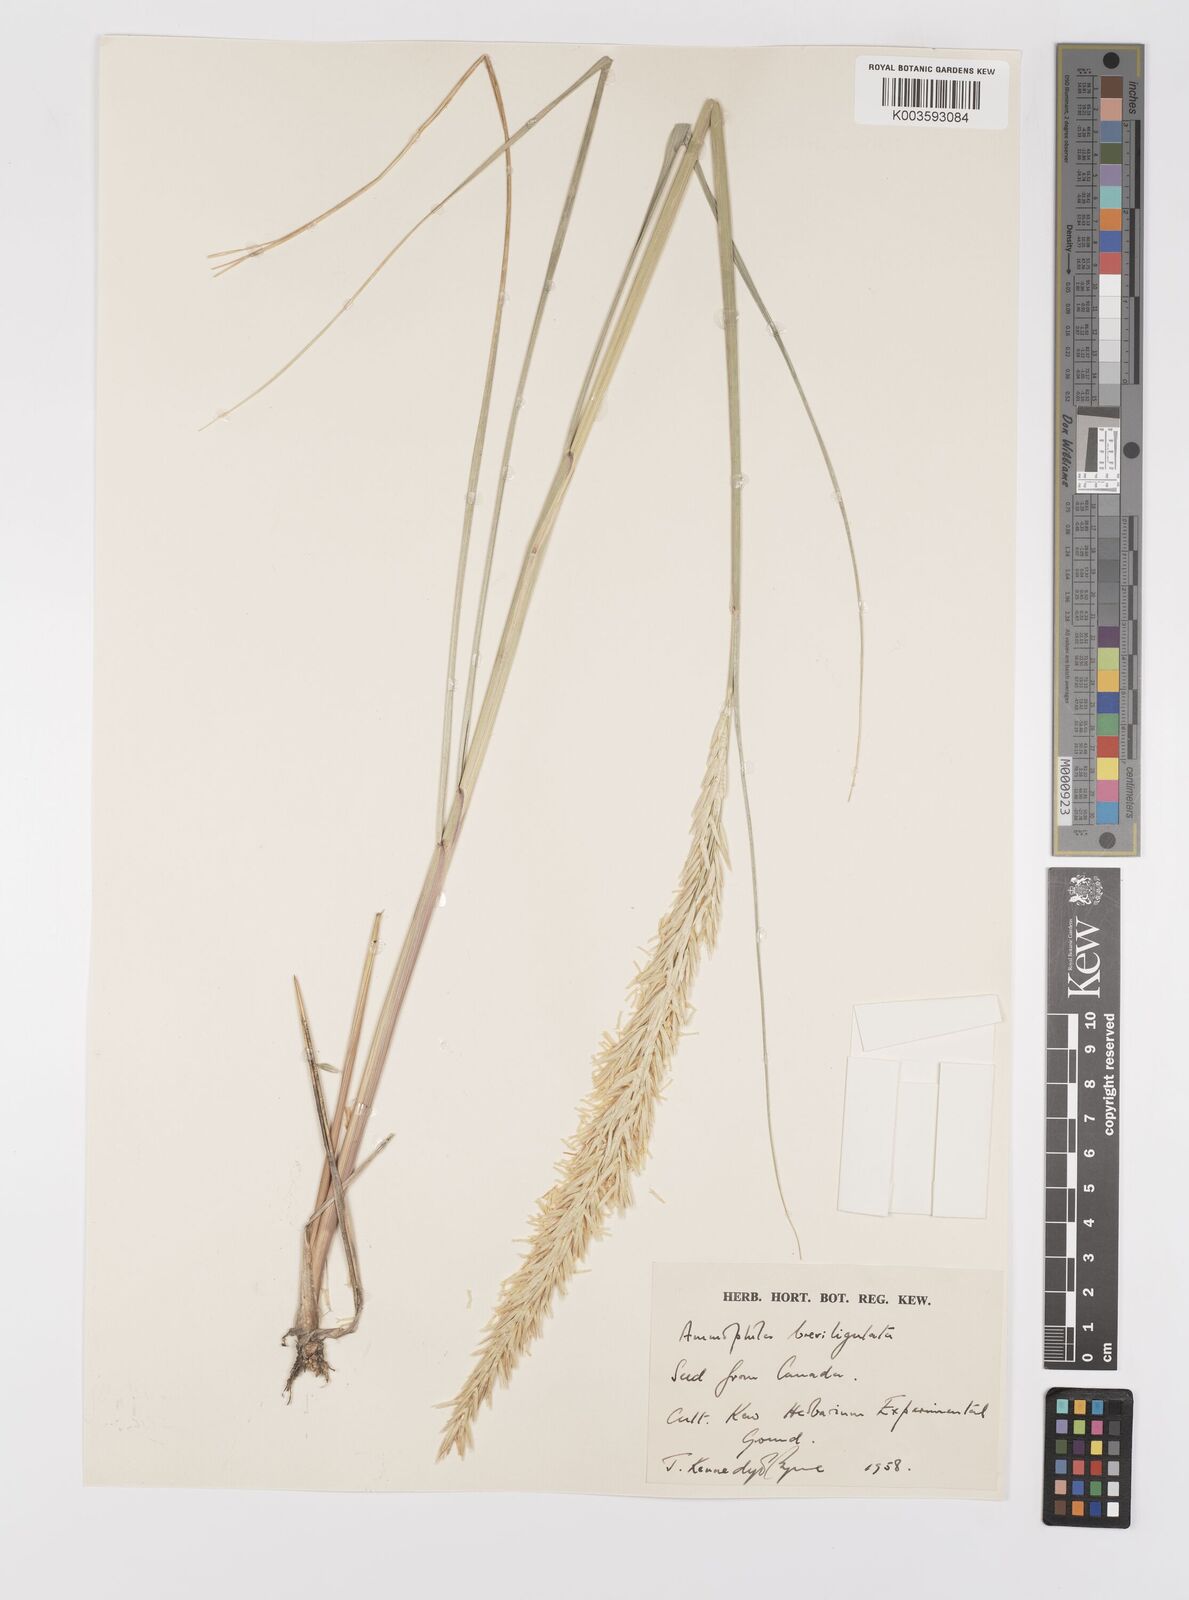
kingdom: Plantae
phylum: Tracheophyta
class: Liliopsida
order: Poales
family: Poaceae
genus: Calamagrostis
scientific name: Calamagrostis breviligulata
